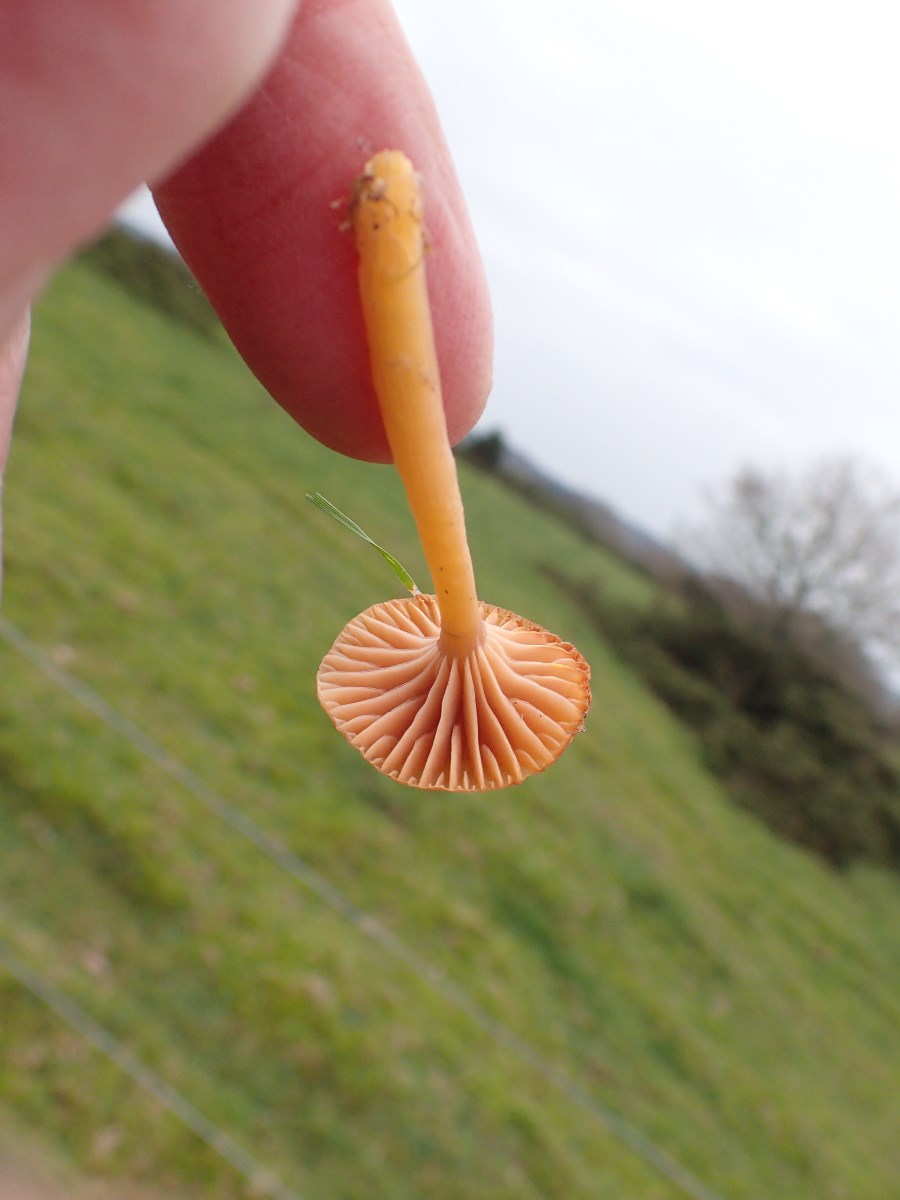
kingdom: Fungi
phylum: Basidiomycota
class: Agaricomycetes
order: Agaricales
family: Hygrophoraceae
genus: Gliophorus
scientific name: Gliophorus laetus
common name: brusk-vokshat
